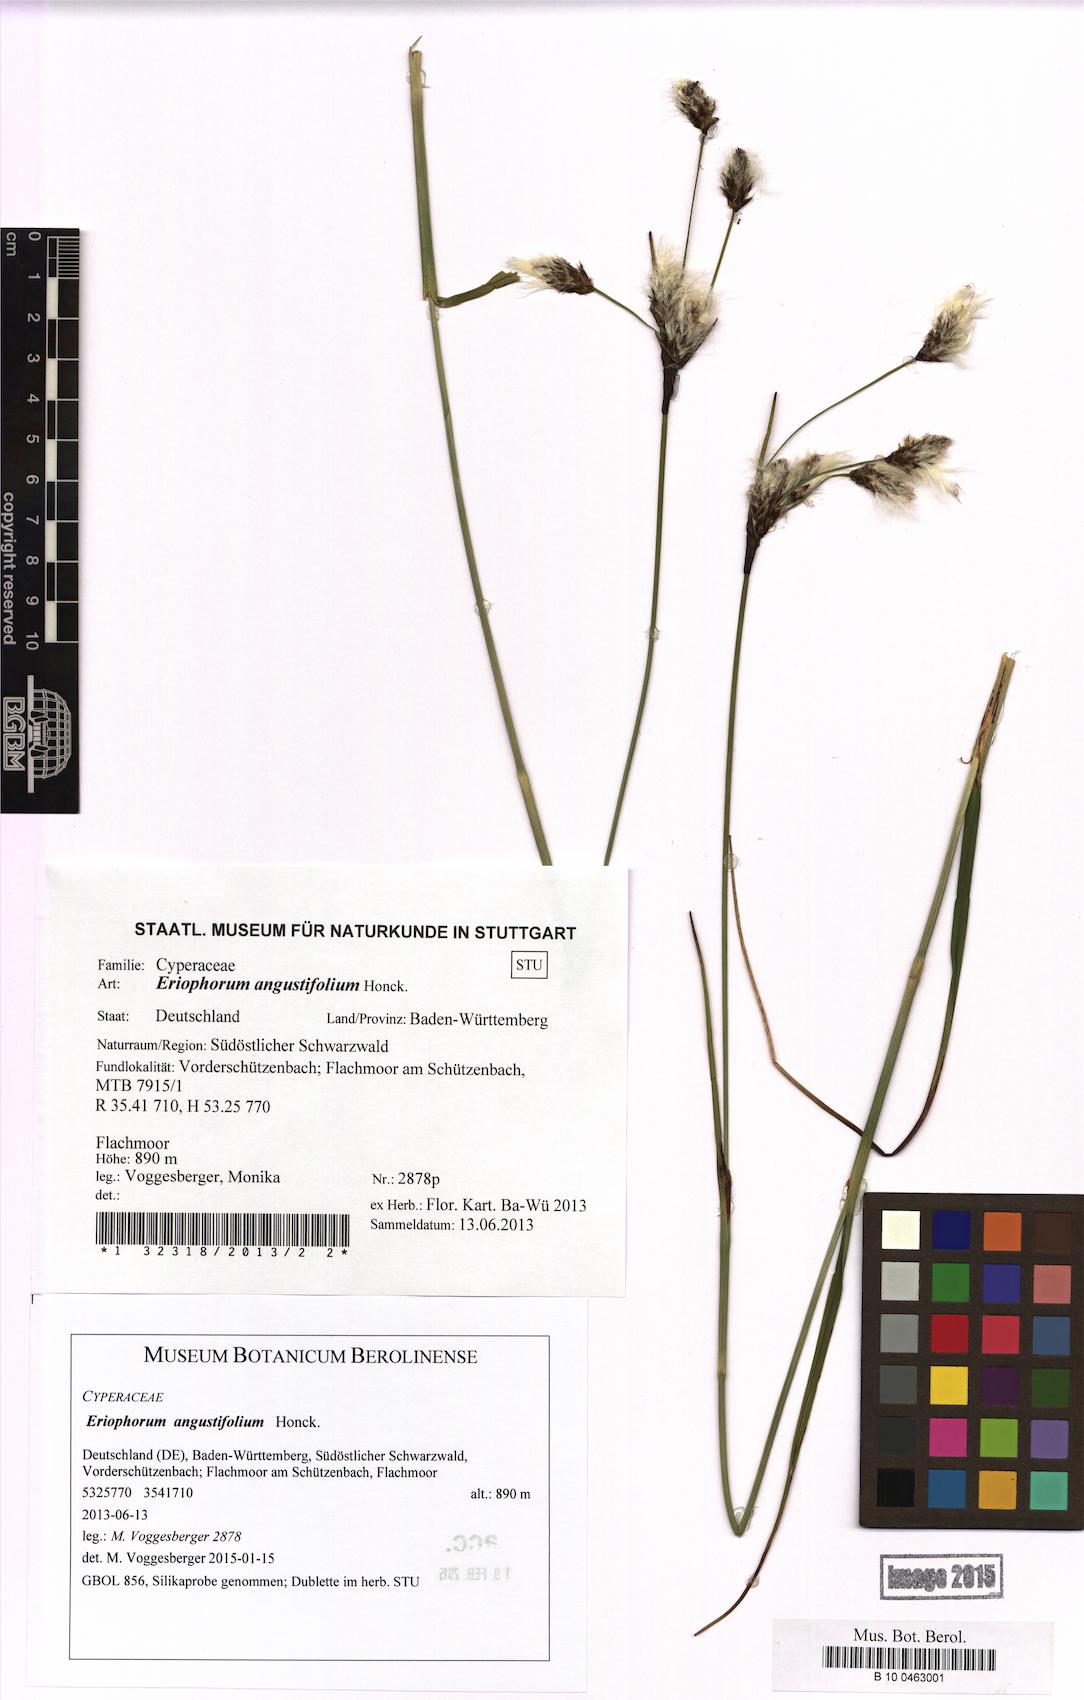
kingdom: Plantae
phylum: Tracheophyta
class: Liliopsida
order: Poales
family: Cyperaceae
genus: Eriophorum
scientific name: Eriophorum angustifolium
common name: Common cottongrass
